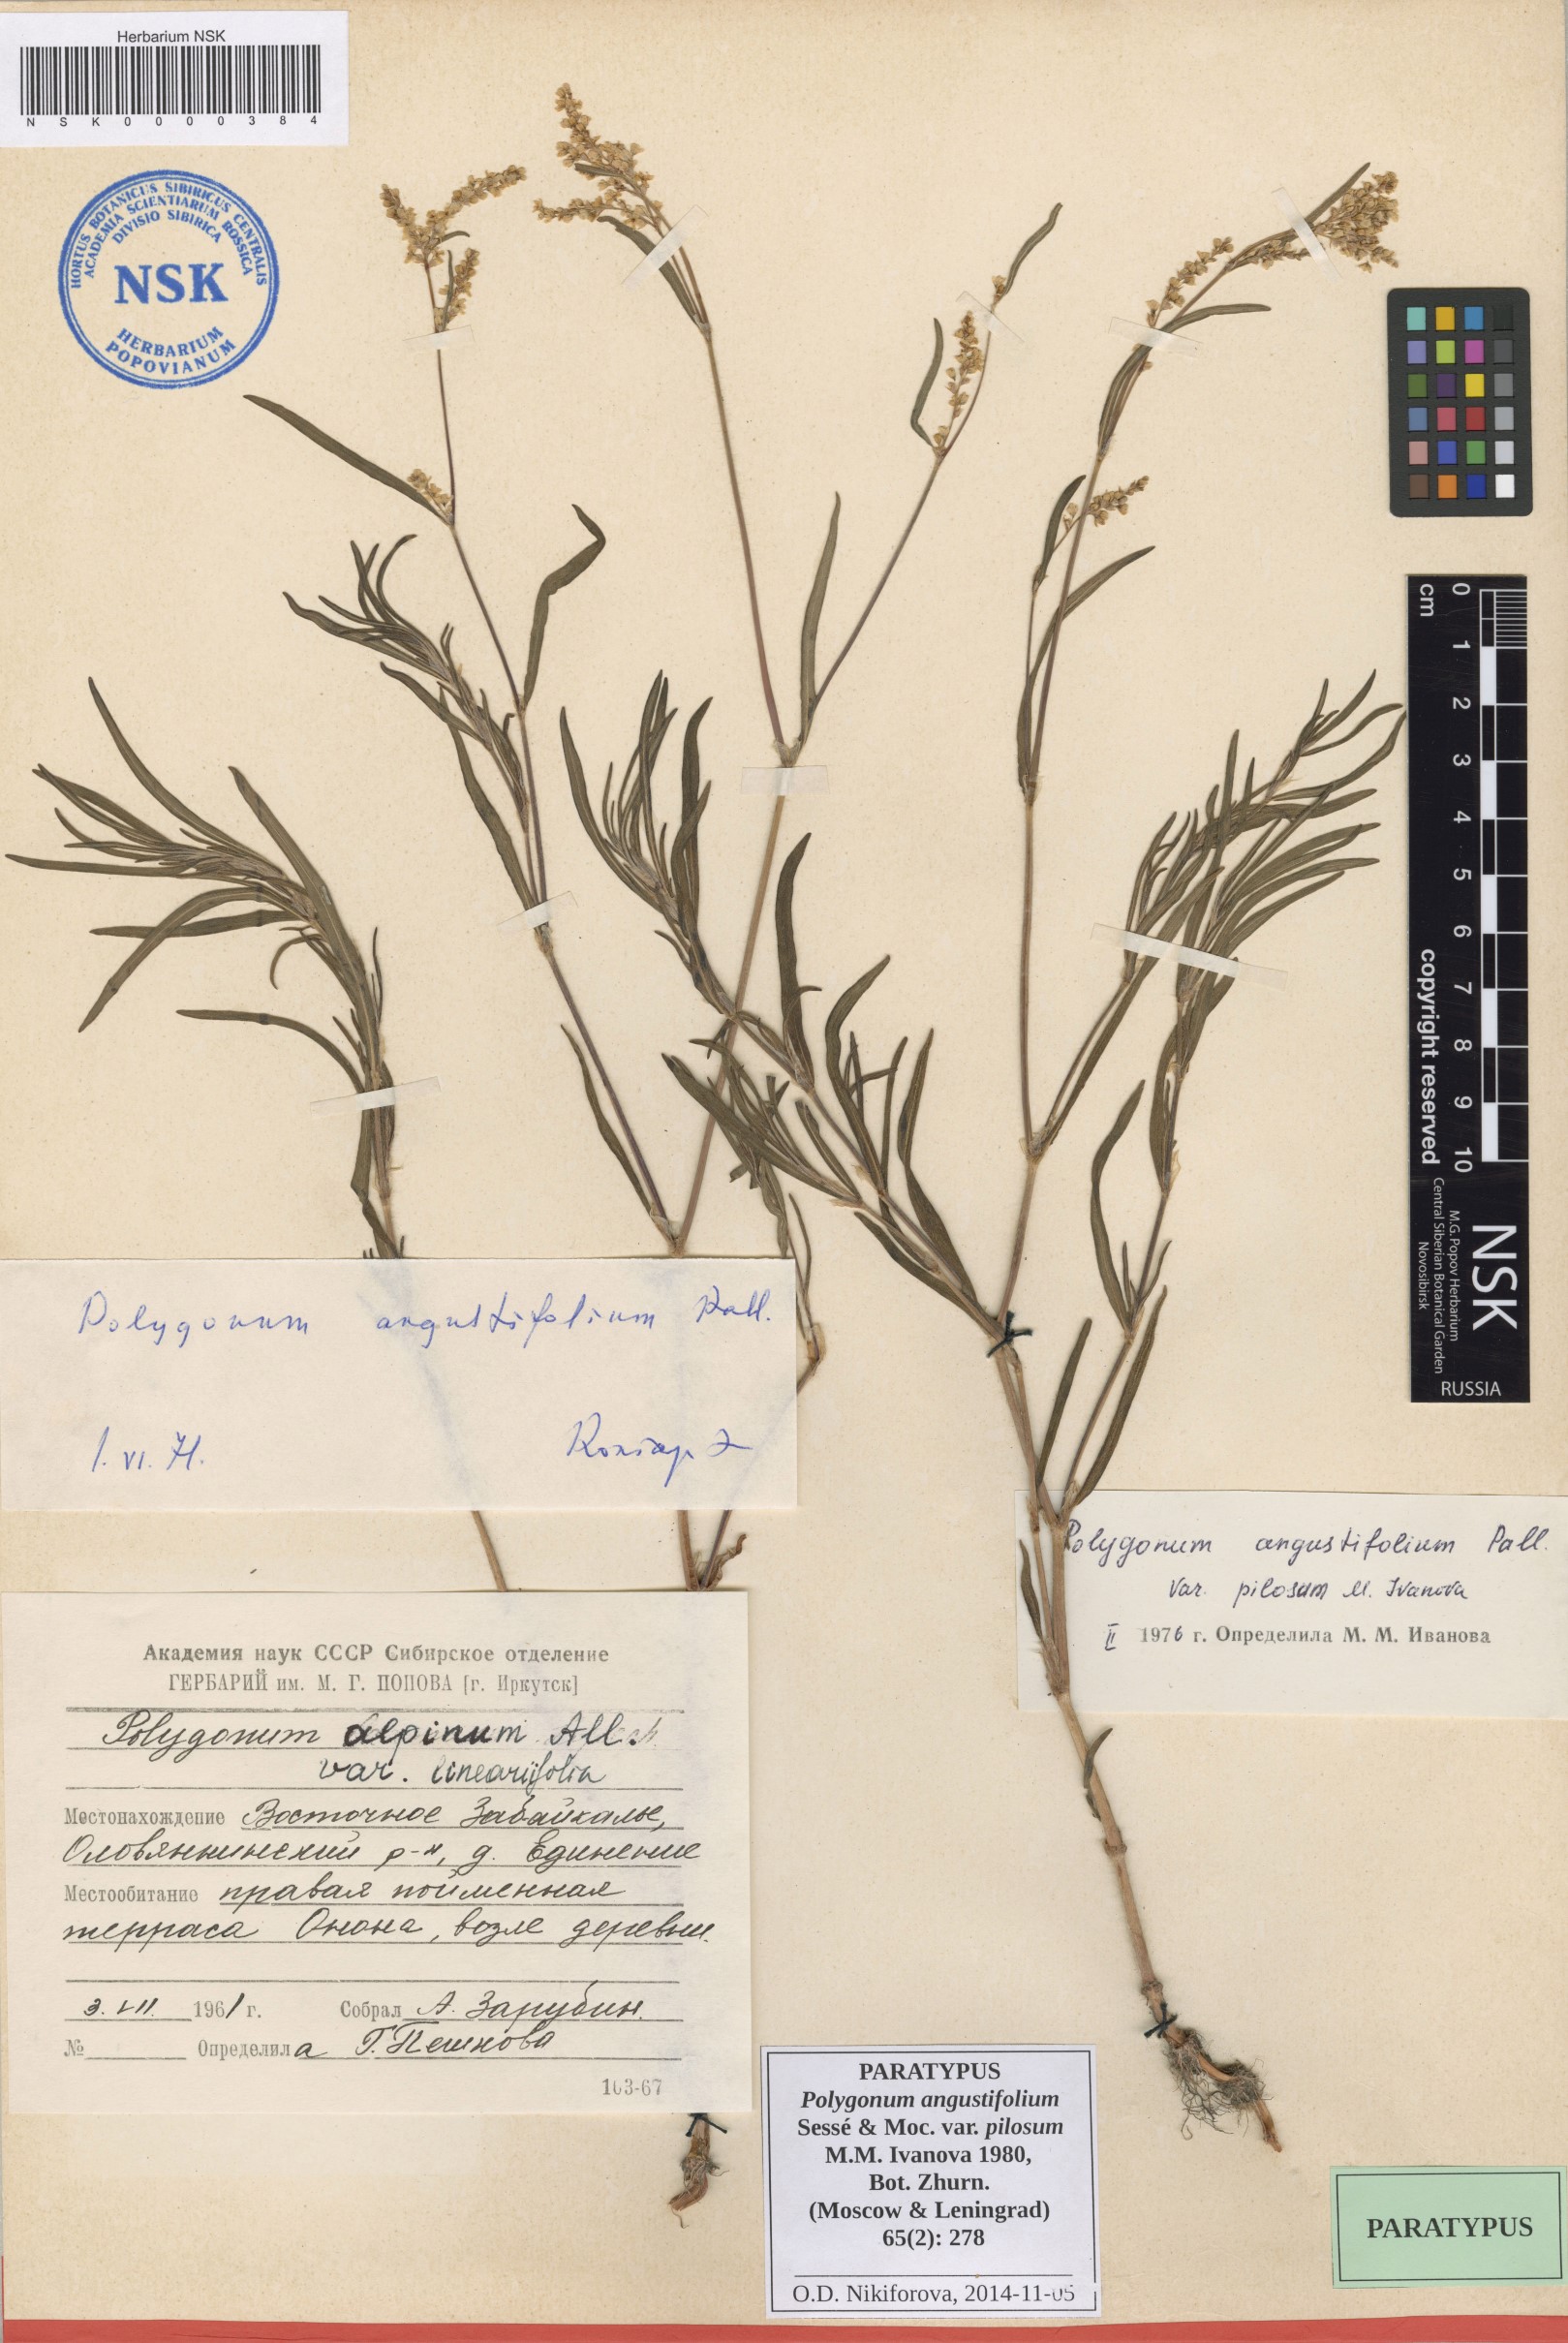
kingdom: Plantae
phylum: Tracheophyta
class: Magnoliopsida
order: Caryophyllales
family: Polygonaceae
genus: Persicaria
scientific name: Persicaria angustifolia
